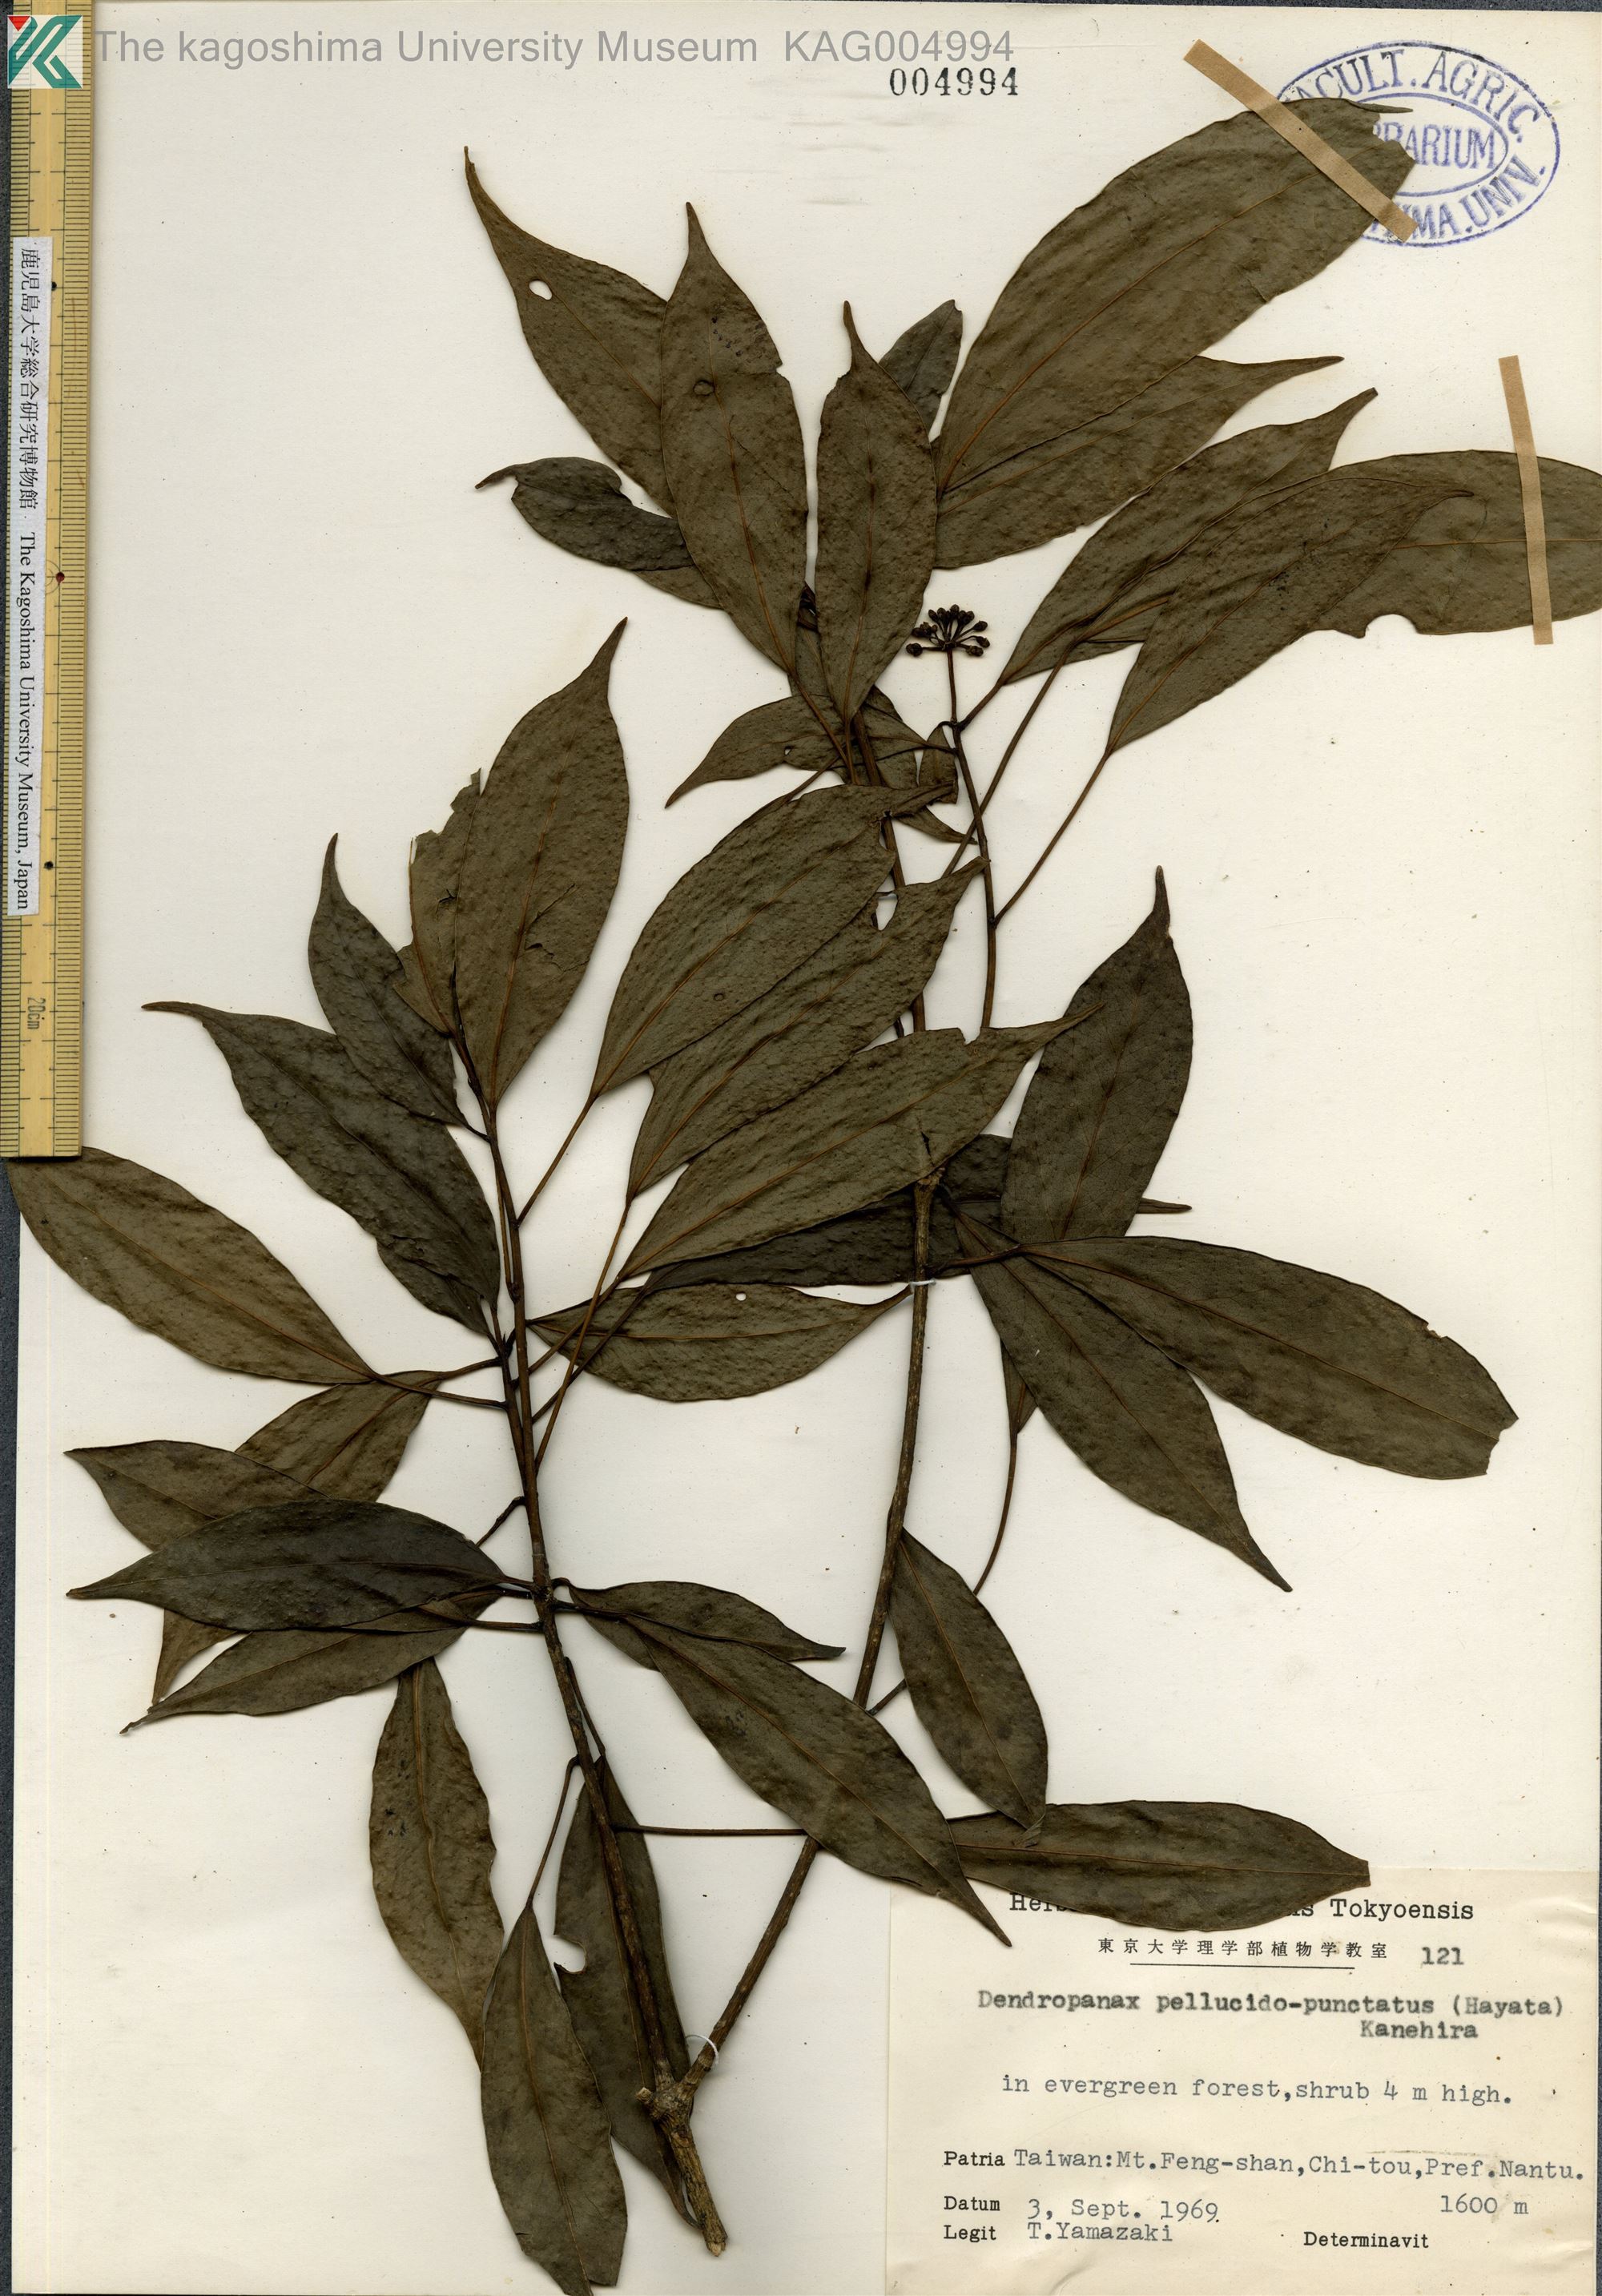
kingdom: Plantae
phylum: Tracheophyta
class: Magnoliopsida
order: Apiales
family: Araliaceae
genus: Dendropanax
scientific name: Dendropanax pellucidopunctatus
